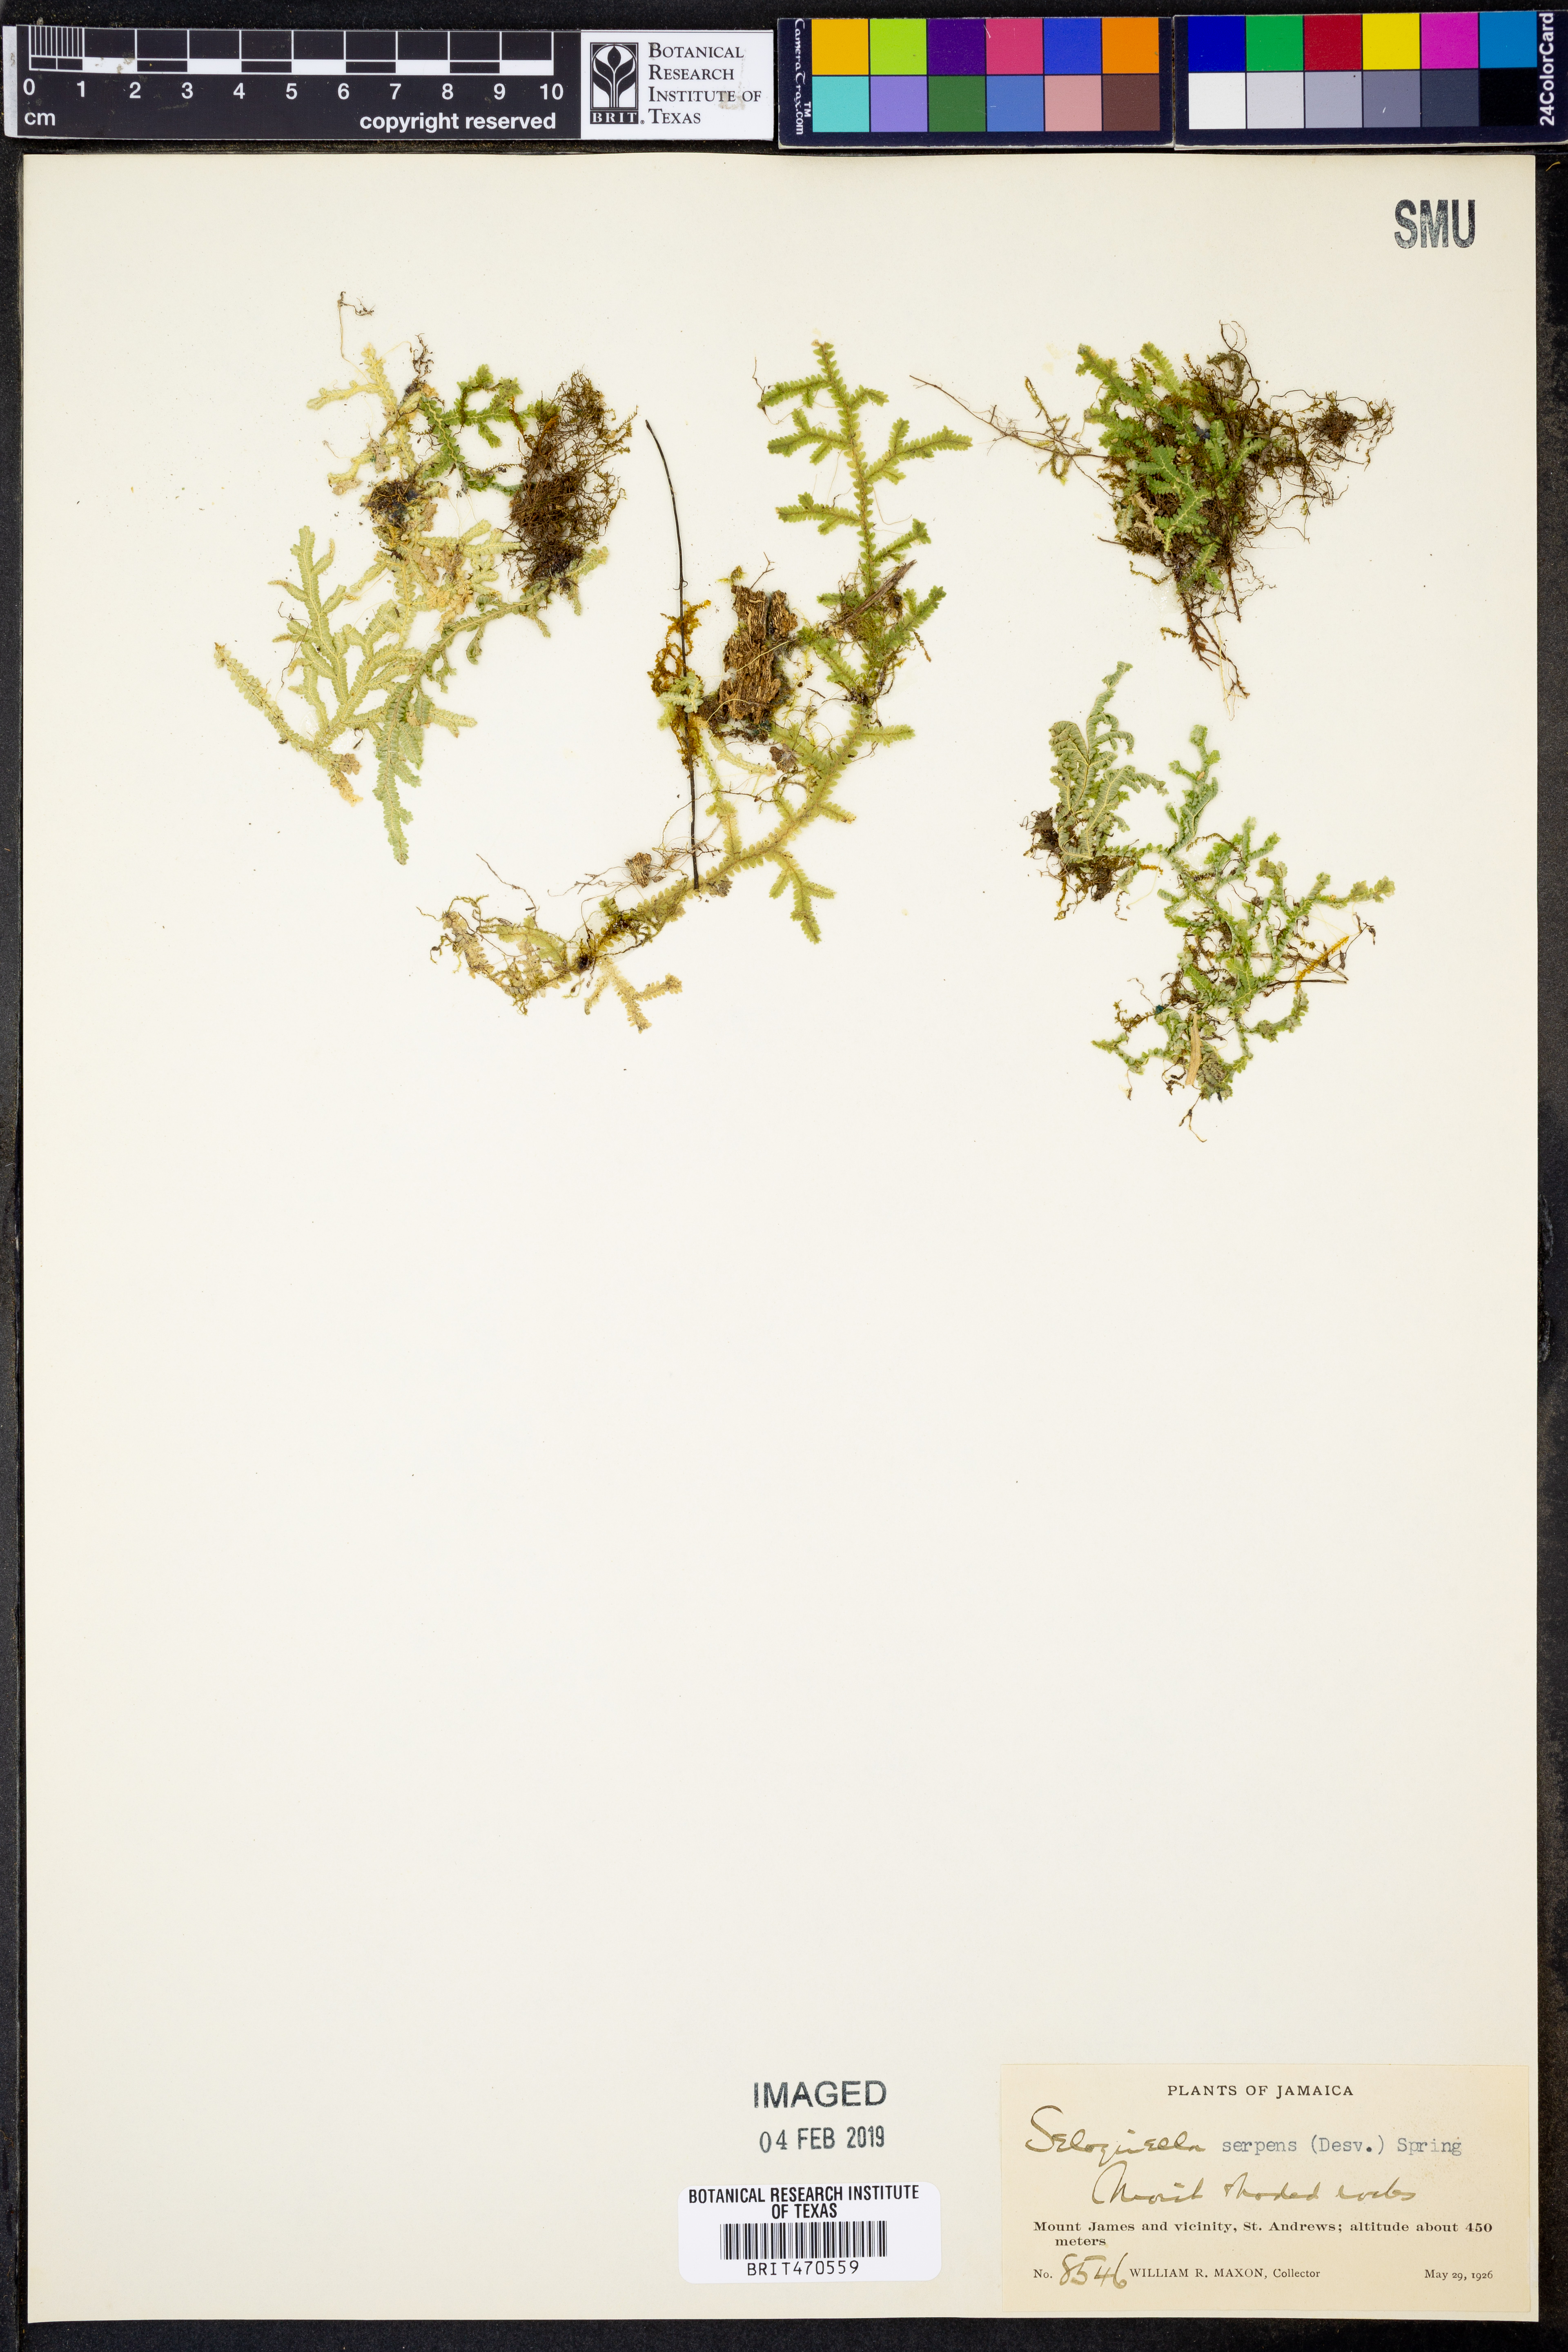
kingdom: Plantae
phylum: Tracheophyta
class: Lycopodiopsida
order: Selaginellales
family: Selaginellaceae
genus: Selaginella
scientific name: Selaginella serpens
